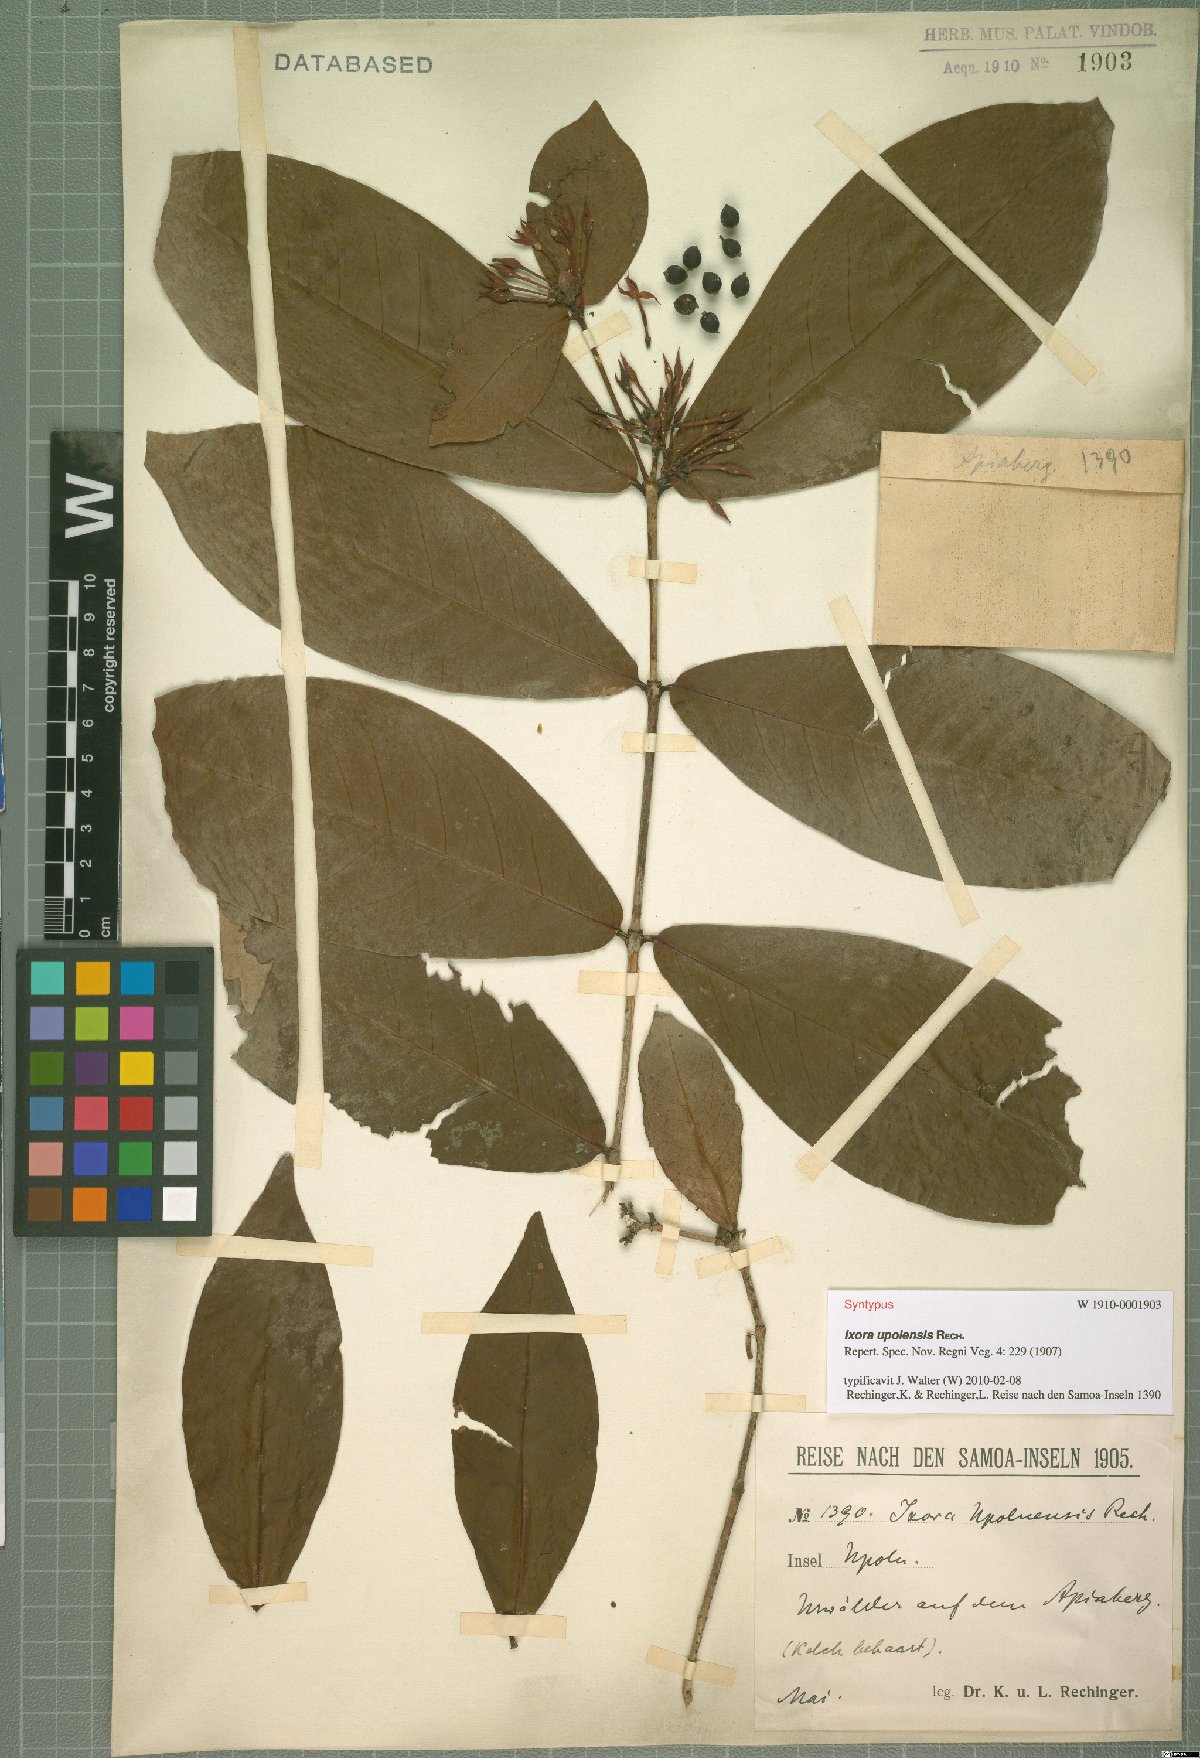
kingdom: Plantae
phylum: Tracheophyta
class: Magnoliopsida
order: Gentianales
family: Rubiaceae
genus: Ixora
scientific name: Ixora amplifolia
